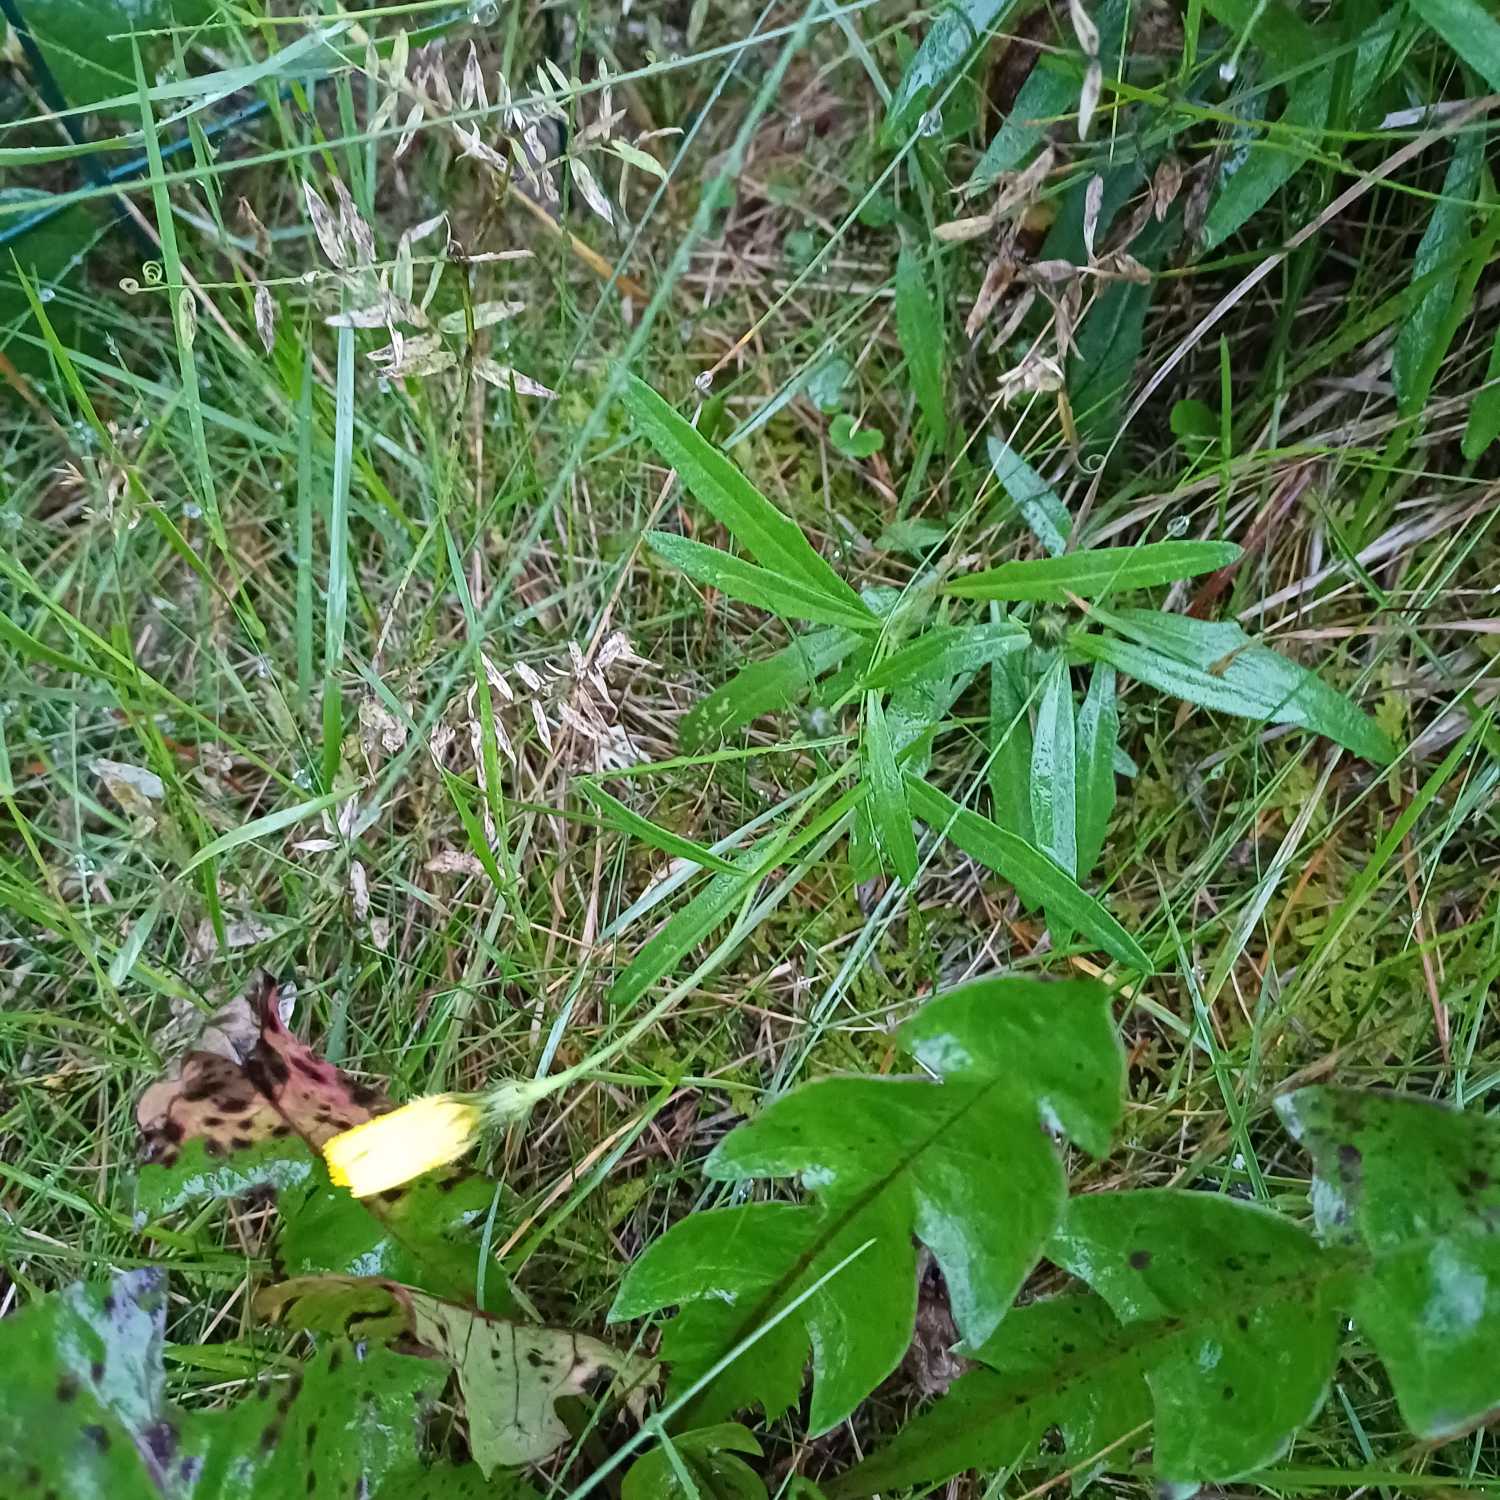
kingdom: Plantae
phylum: Tracheophyta
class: Magnoliopsida
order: Asterales
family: Asteraceae
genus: Hieracium
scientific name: Hieracium umbellatum
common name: Smalbladet høgeurt
